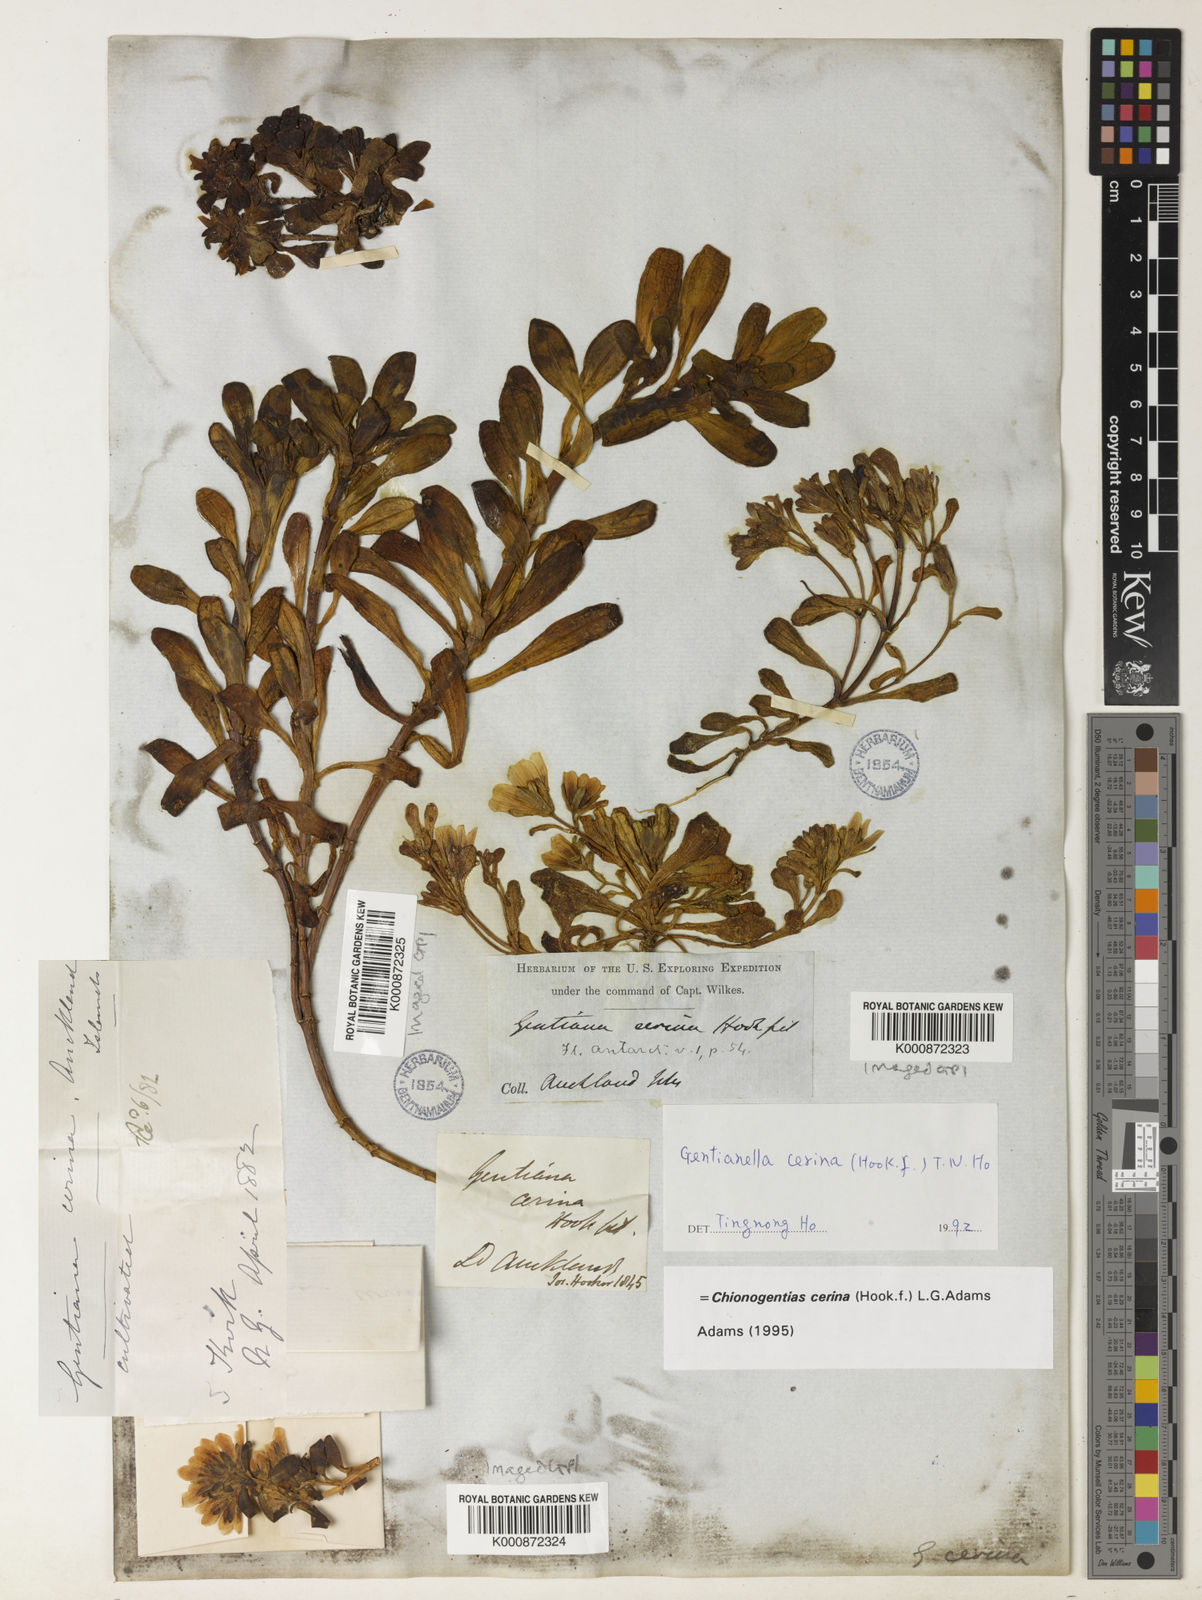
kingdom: Plantae
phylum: Tracheophyta
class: Magnoliopsida
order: Gentianales
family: Gentianaceae
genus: Gentianella
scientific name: Gentianella cerina
